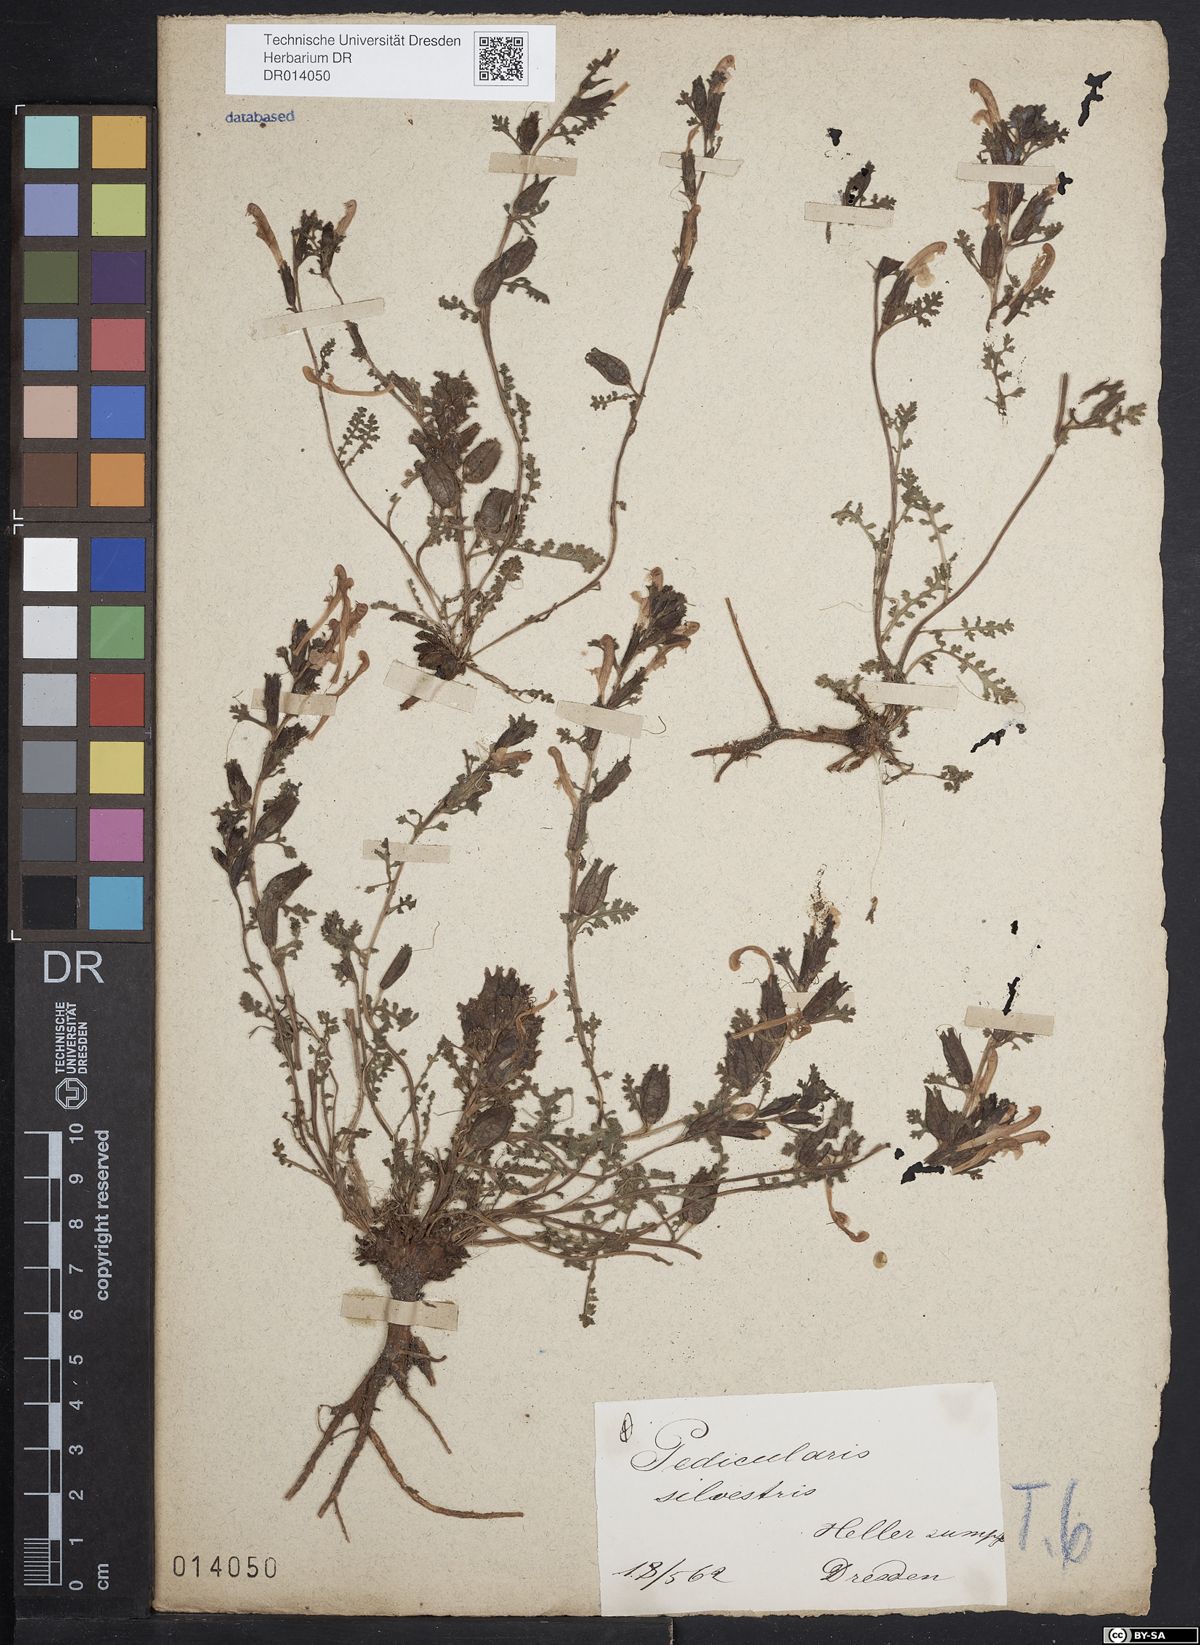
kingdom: Plantae
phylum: Tracheophyta
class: Magnoliopsida
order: Lamiales
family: Orobanchaceae
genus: Pedicularis
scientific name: Pedicularis sylvatica
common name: Lousewort
